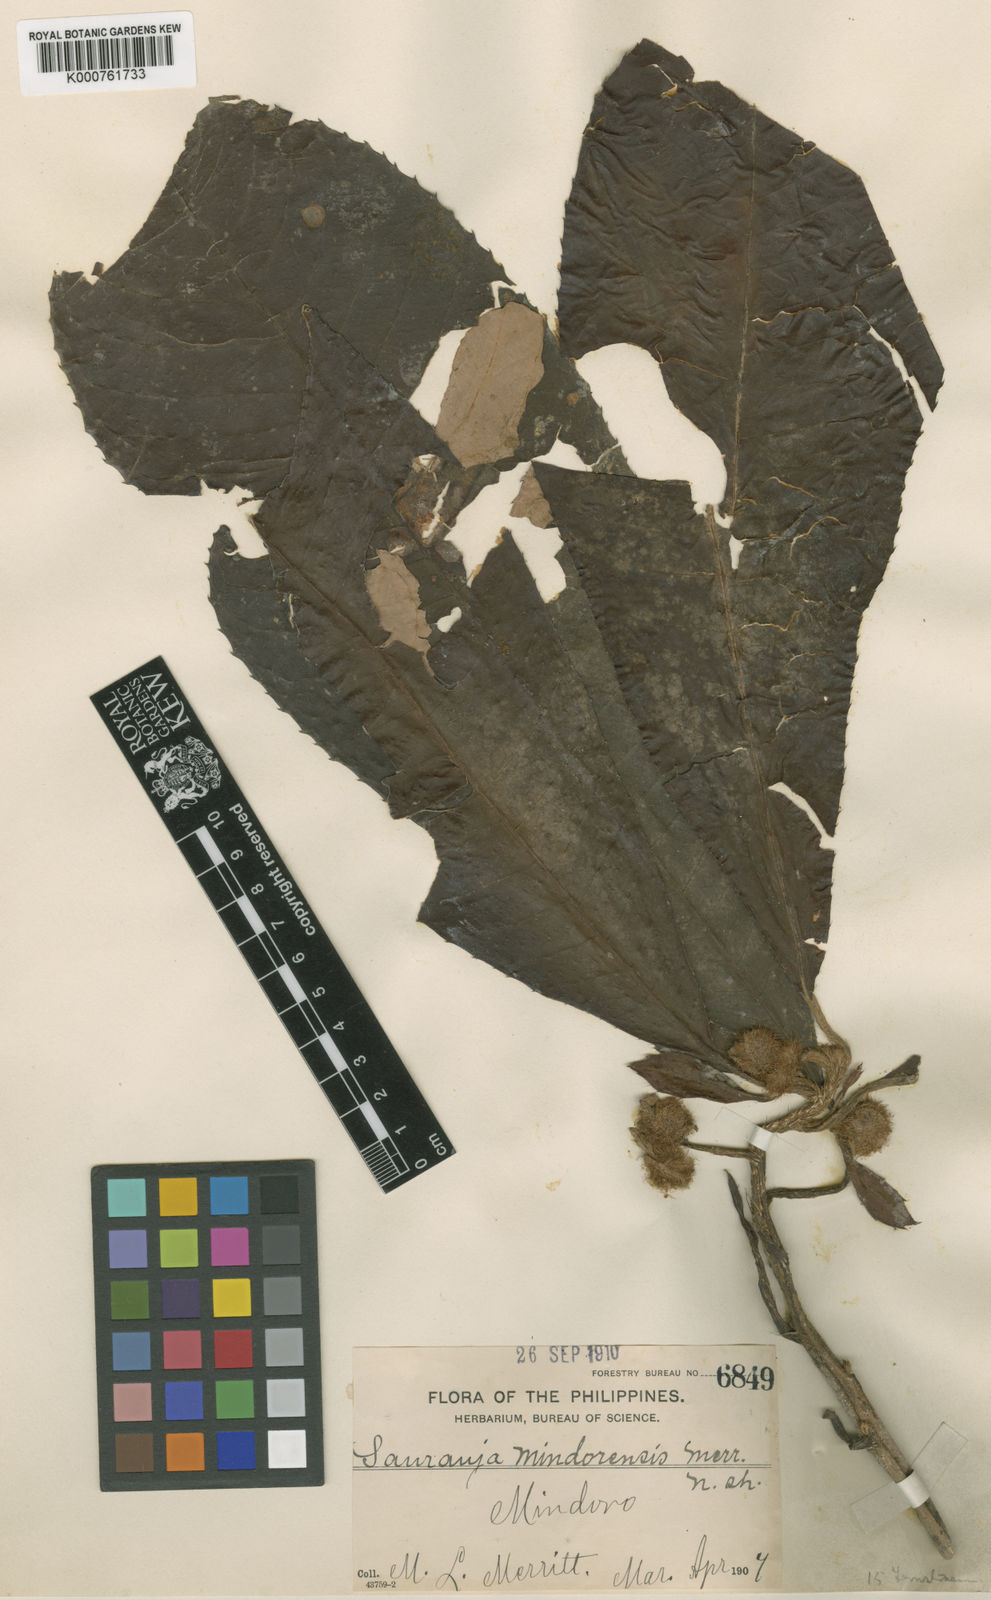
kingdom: Plantae
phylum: Tracheophyta
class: Magnoliopsida
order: Ericales
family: Actinidiaceae
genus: Saurauia
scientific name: Saurauia
